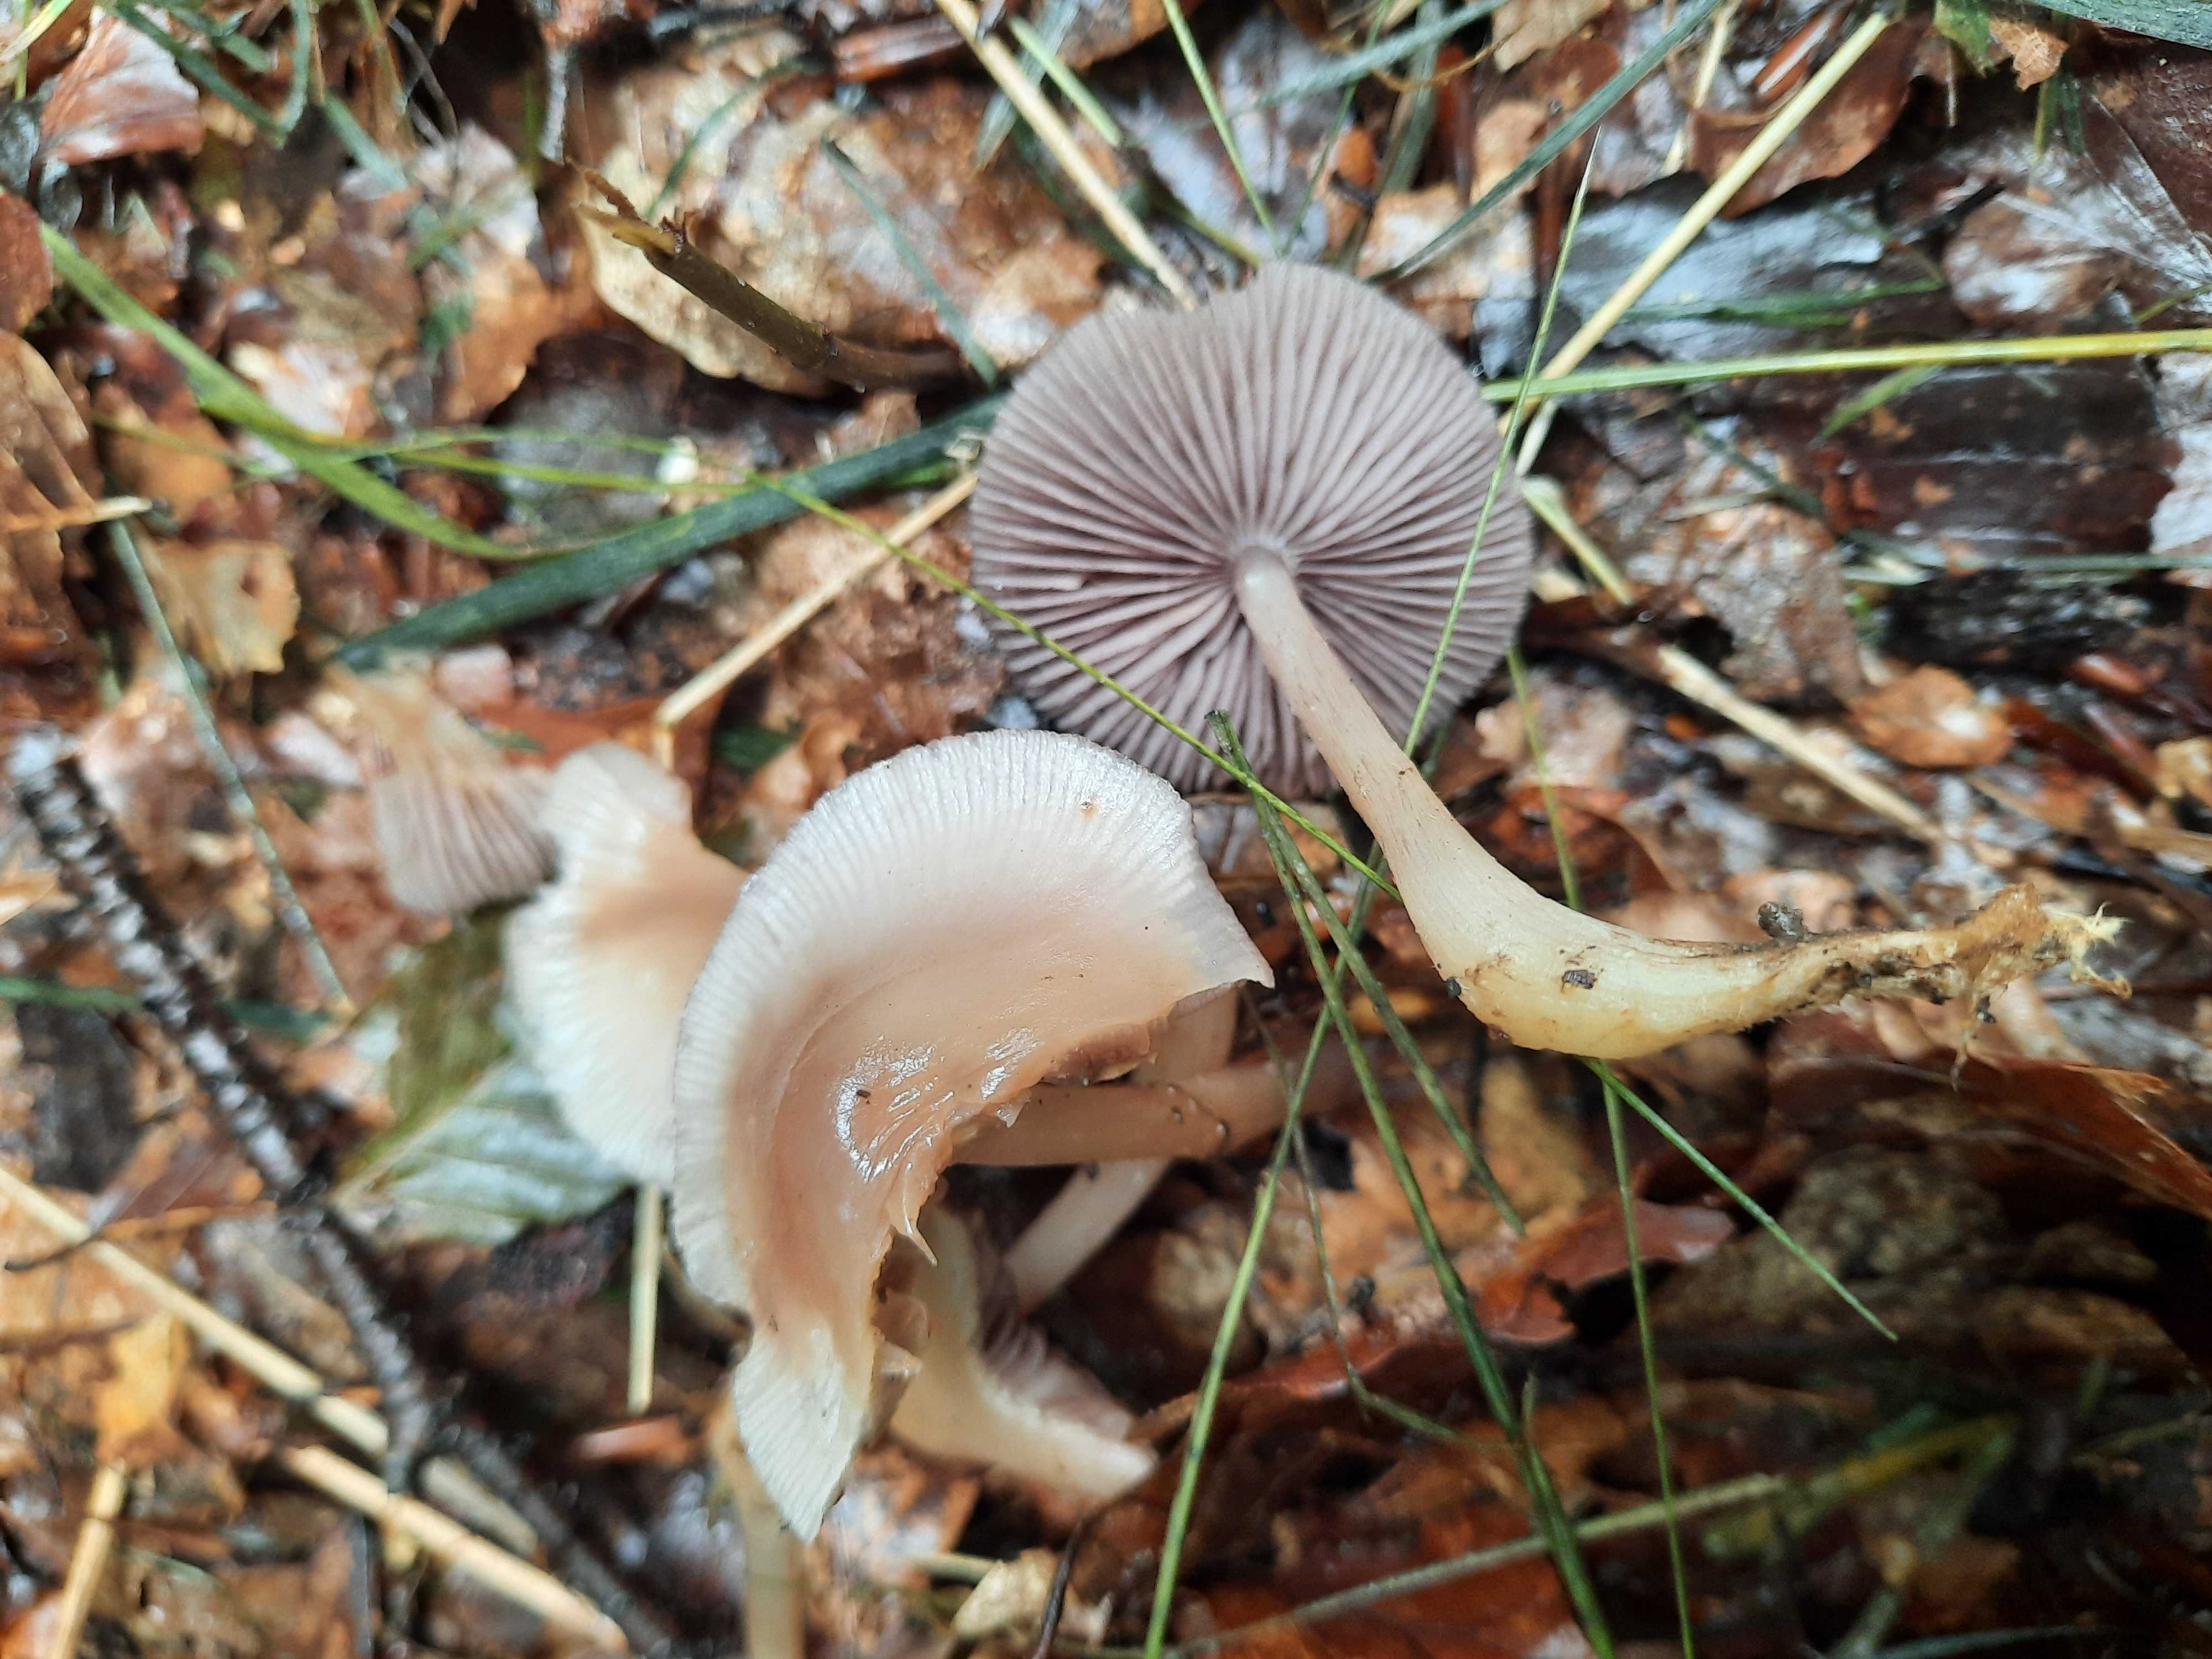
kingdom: Fungi
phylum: Basidiomycota
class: Agaricomycetes
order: Agaricales
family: Mycenaceae
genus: Mycena
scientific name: Mycena pelianthina
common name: mørkbladet huesvamp
